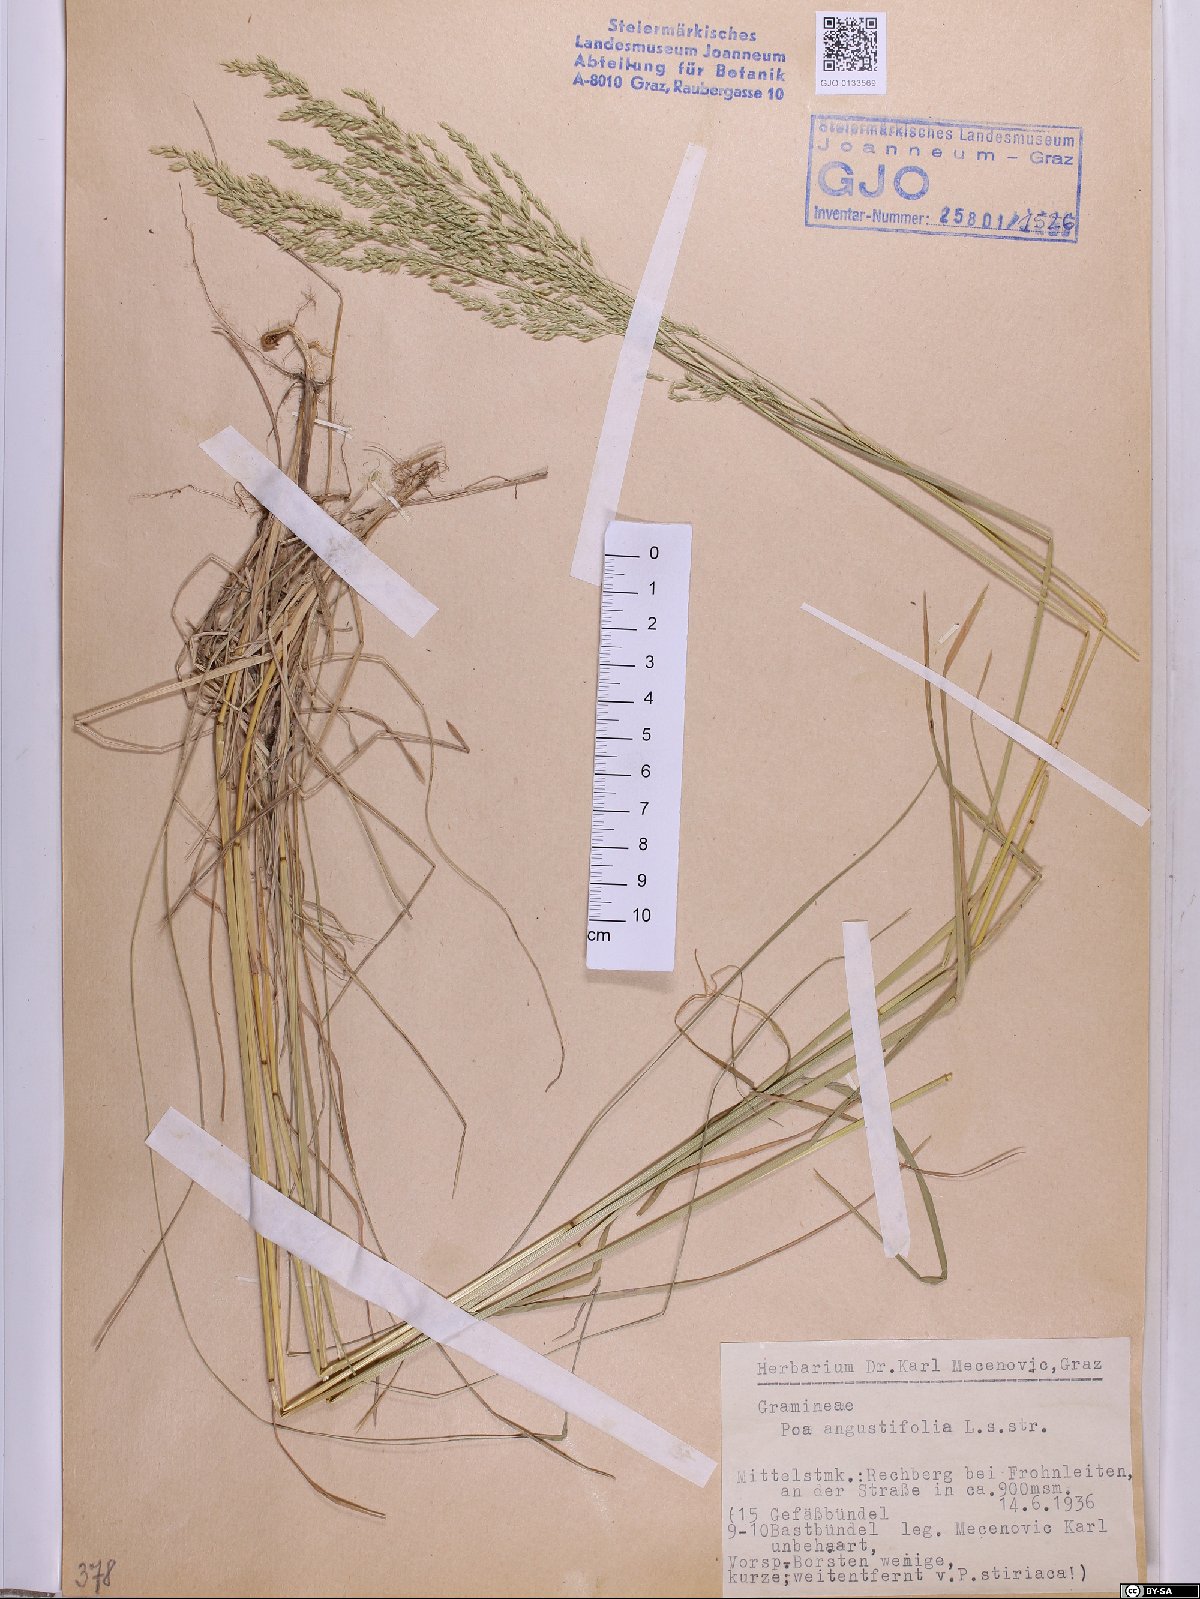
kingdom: Plantae
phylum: Tracheophyta
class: Liliopsida
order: Poales
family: Poaceae
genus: Poa
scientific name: Poa angustifolia
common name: Narrow-leaved meadow-grass
